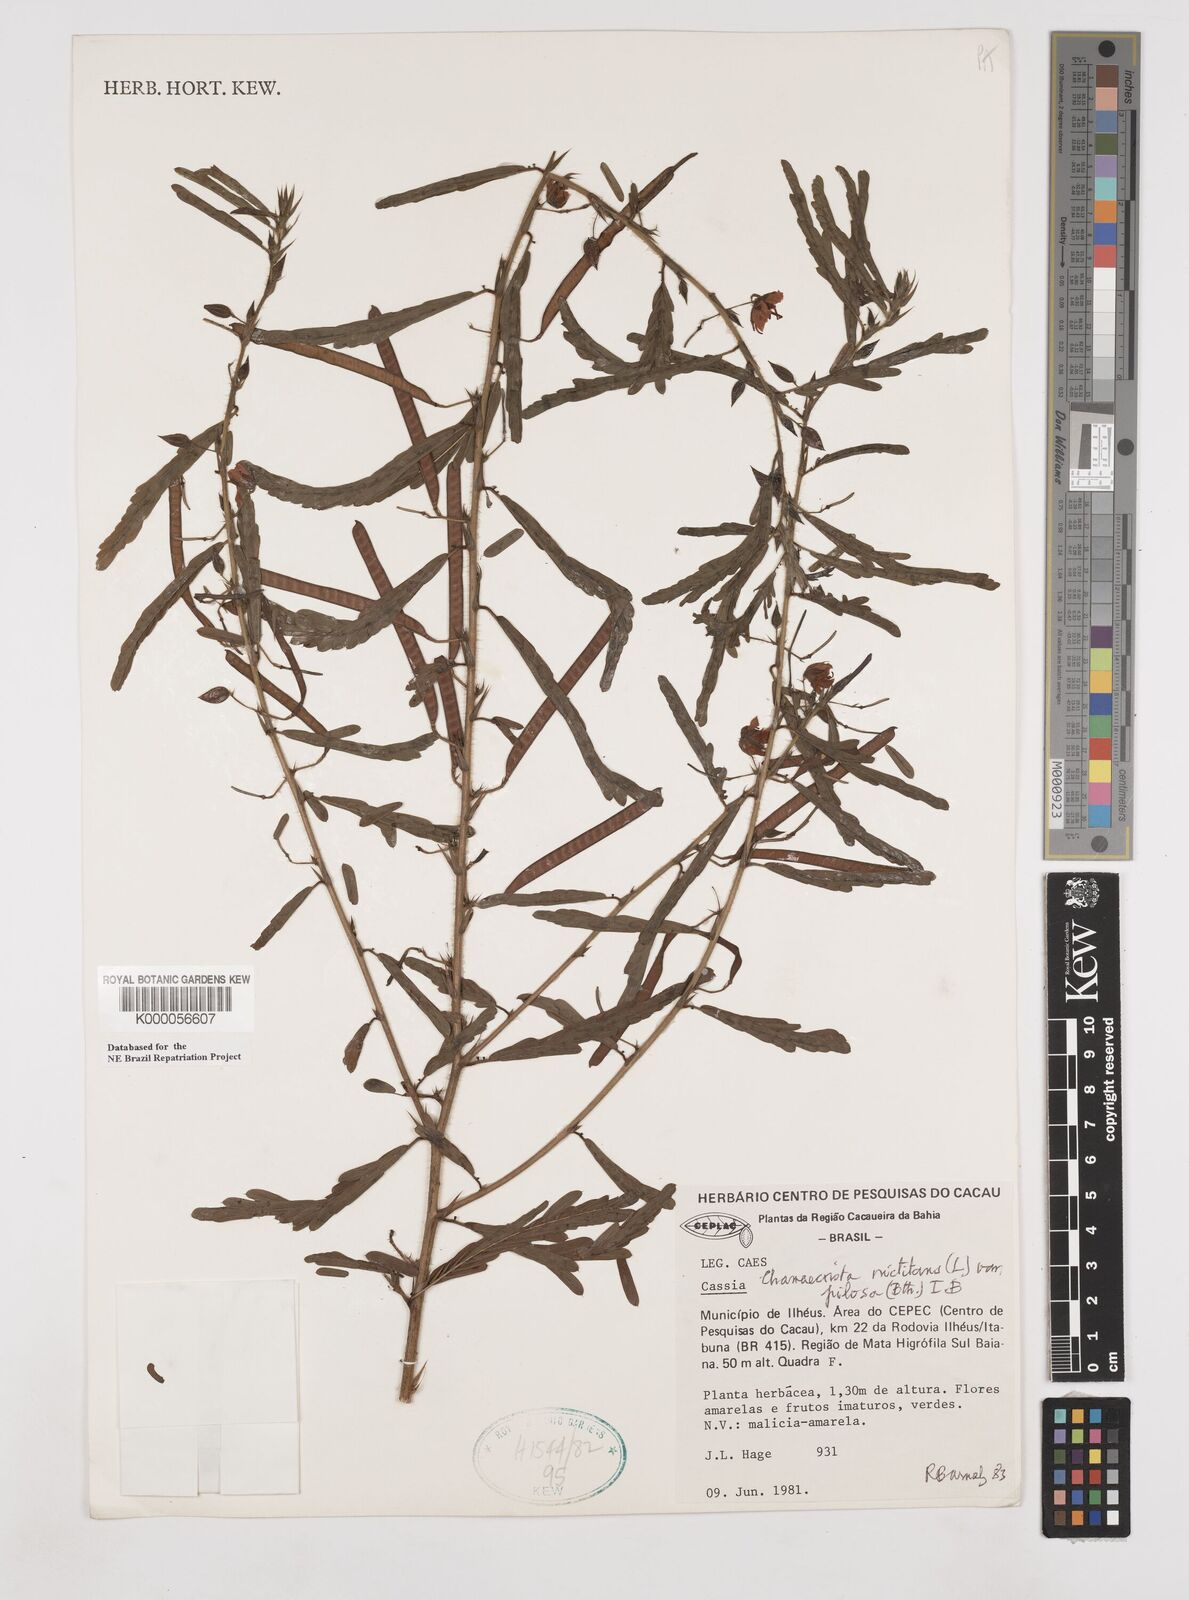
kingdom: Plantae
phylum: Tracheophyta
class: Magnoliopsida
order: Fabales
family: Fabaceae
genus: Chamaecrista
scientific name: Chamaecrista nictitans
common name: Sensitive cassia
